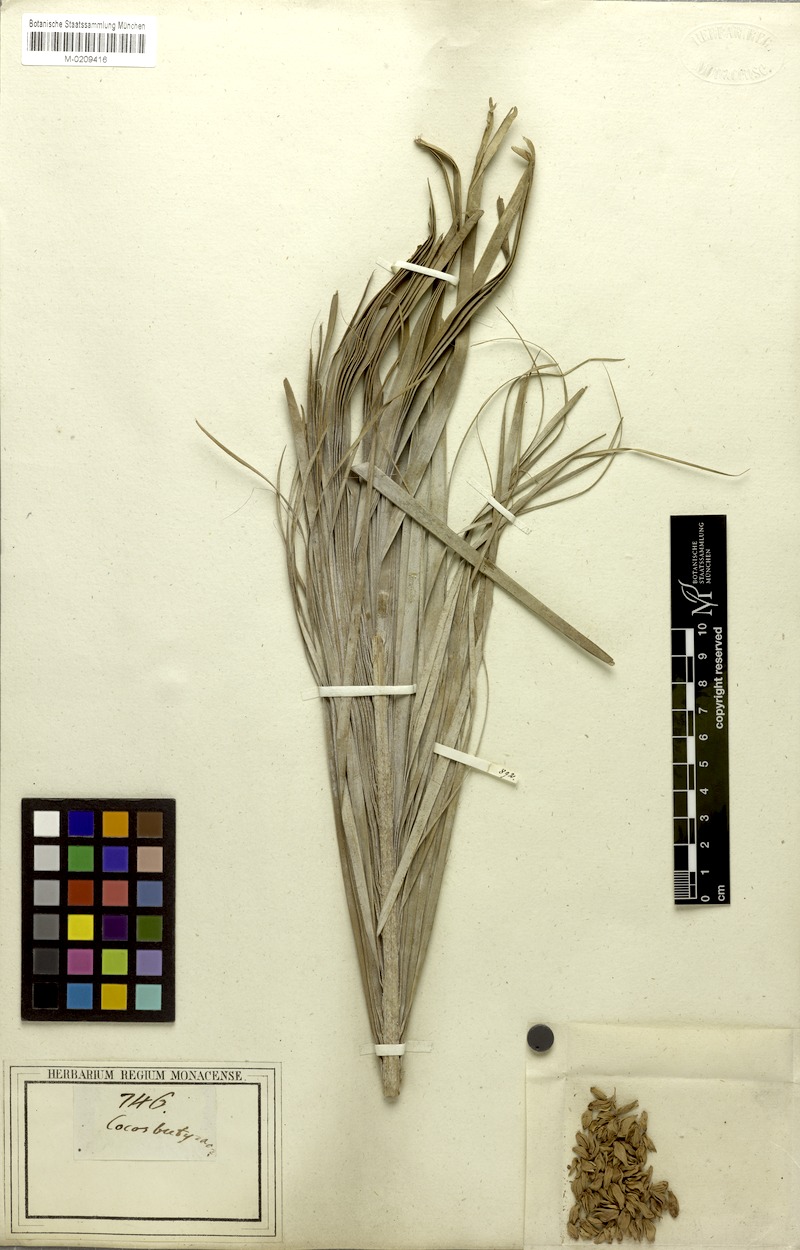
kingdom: Plantae
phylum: Tracheophyta
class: Liliopsida
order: Arecales
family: Arecaceae
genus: Syagrus
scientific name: Syagrus campestris
